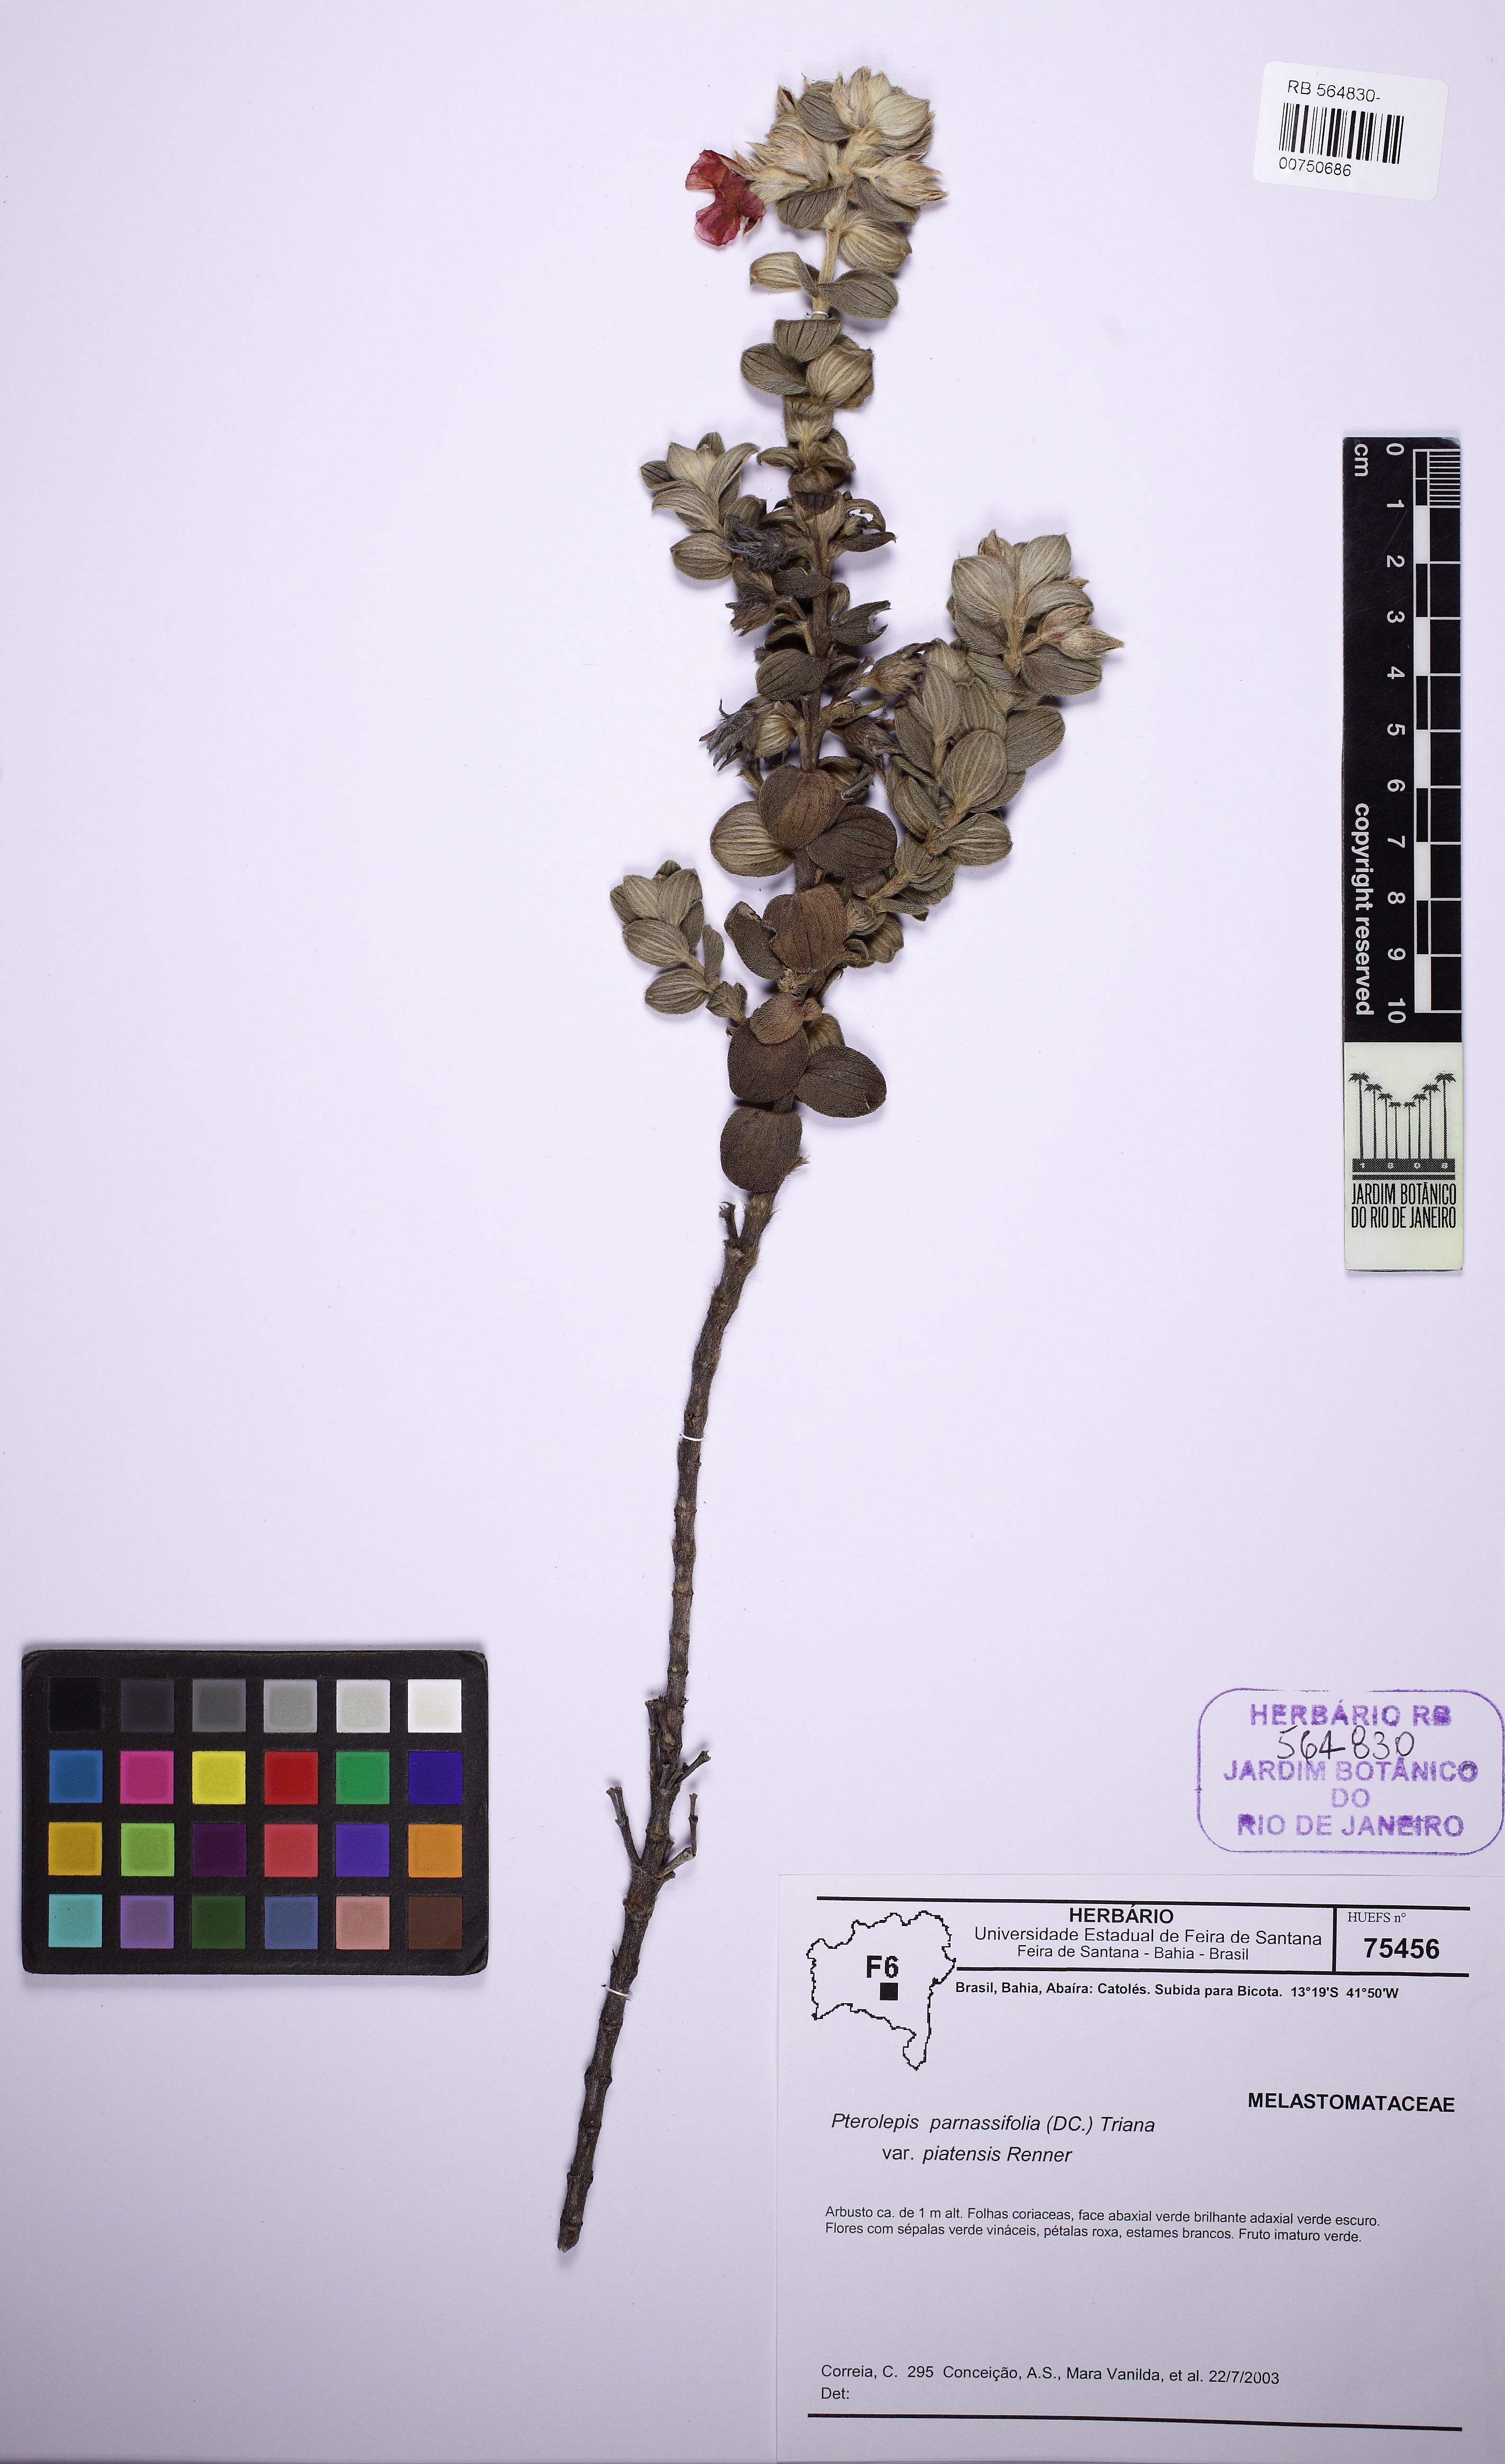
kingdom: Plantae
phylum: Tracheophyta
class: Magnoliopsida
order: Myrtales
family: Melastomataceae
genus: Pterolepis
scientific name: Pterolepis piatensis
